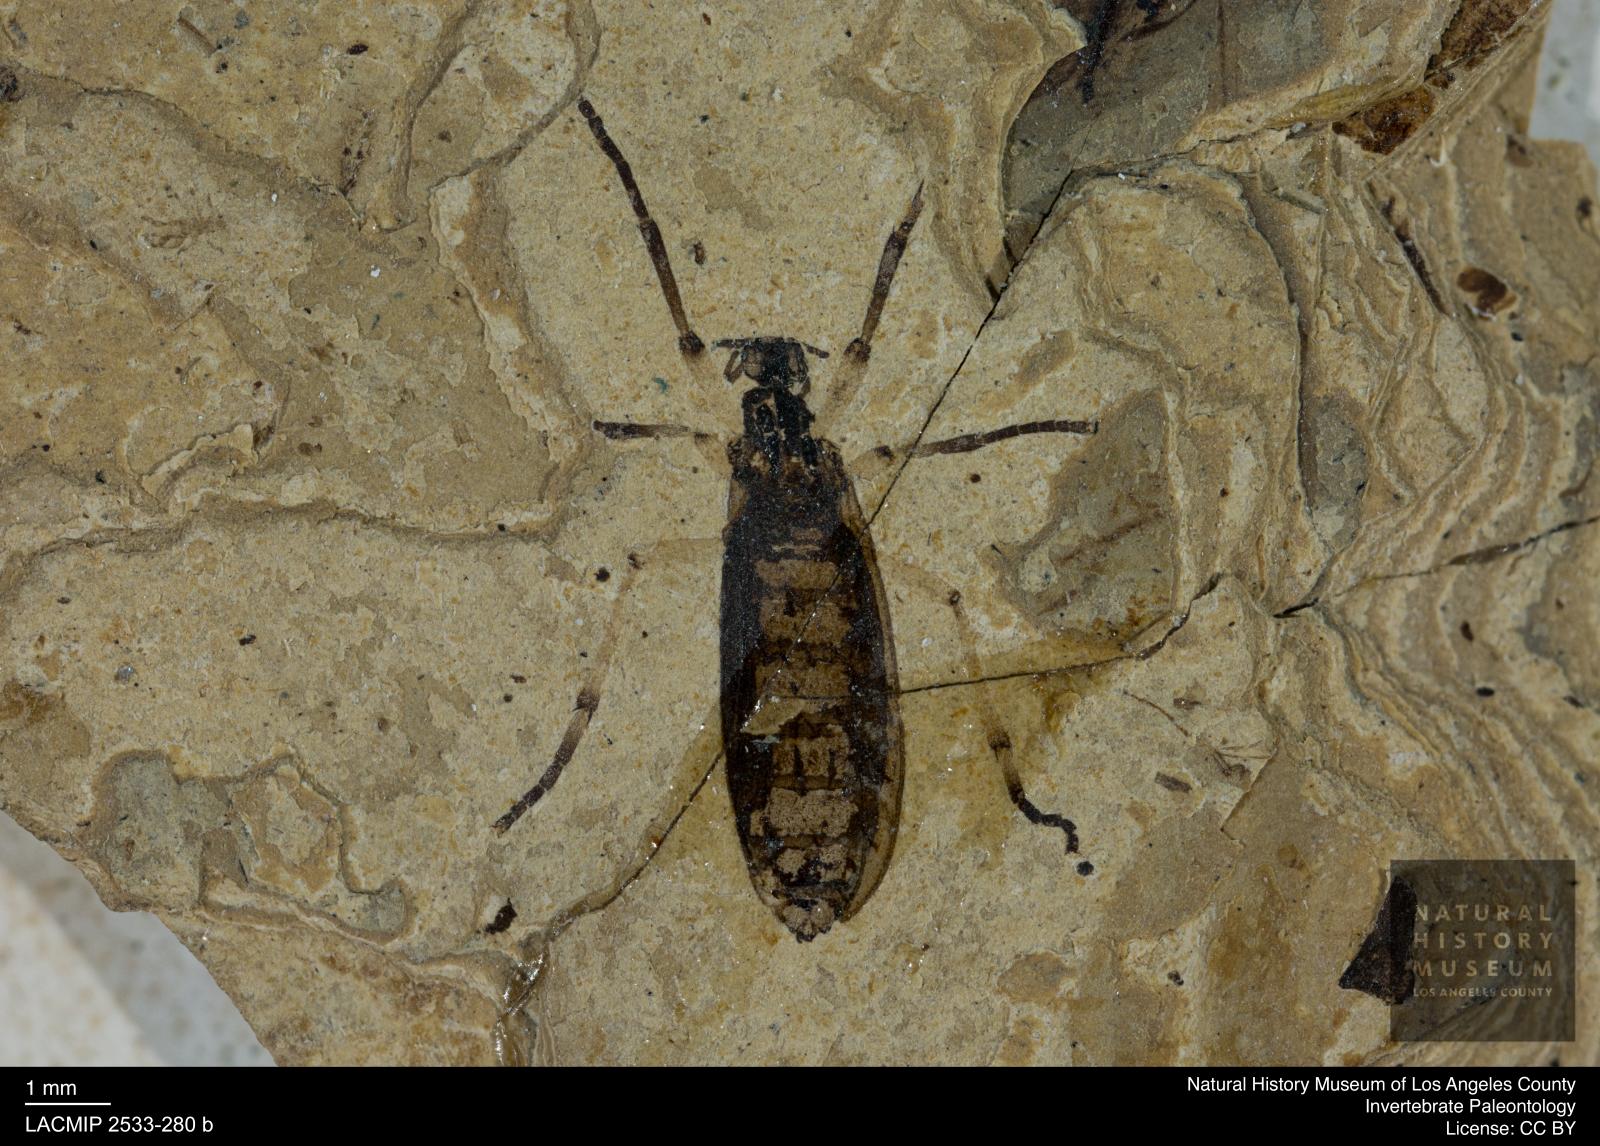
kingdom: Animalia
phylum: Arthropoda
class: Insecta
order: Diptera
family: Bibionidae
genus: Plecia
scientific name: Plecia pinguis
